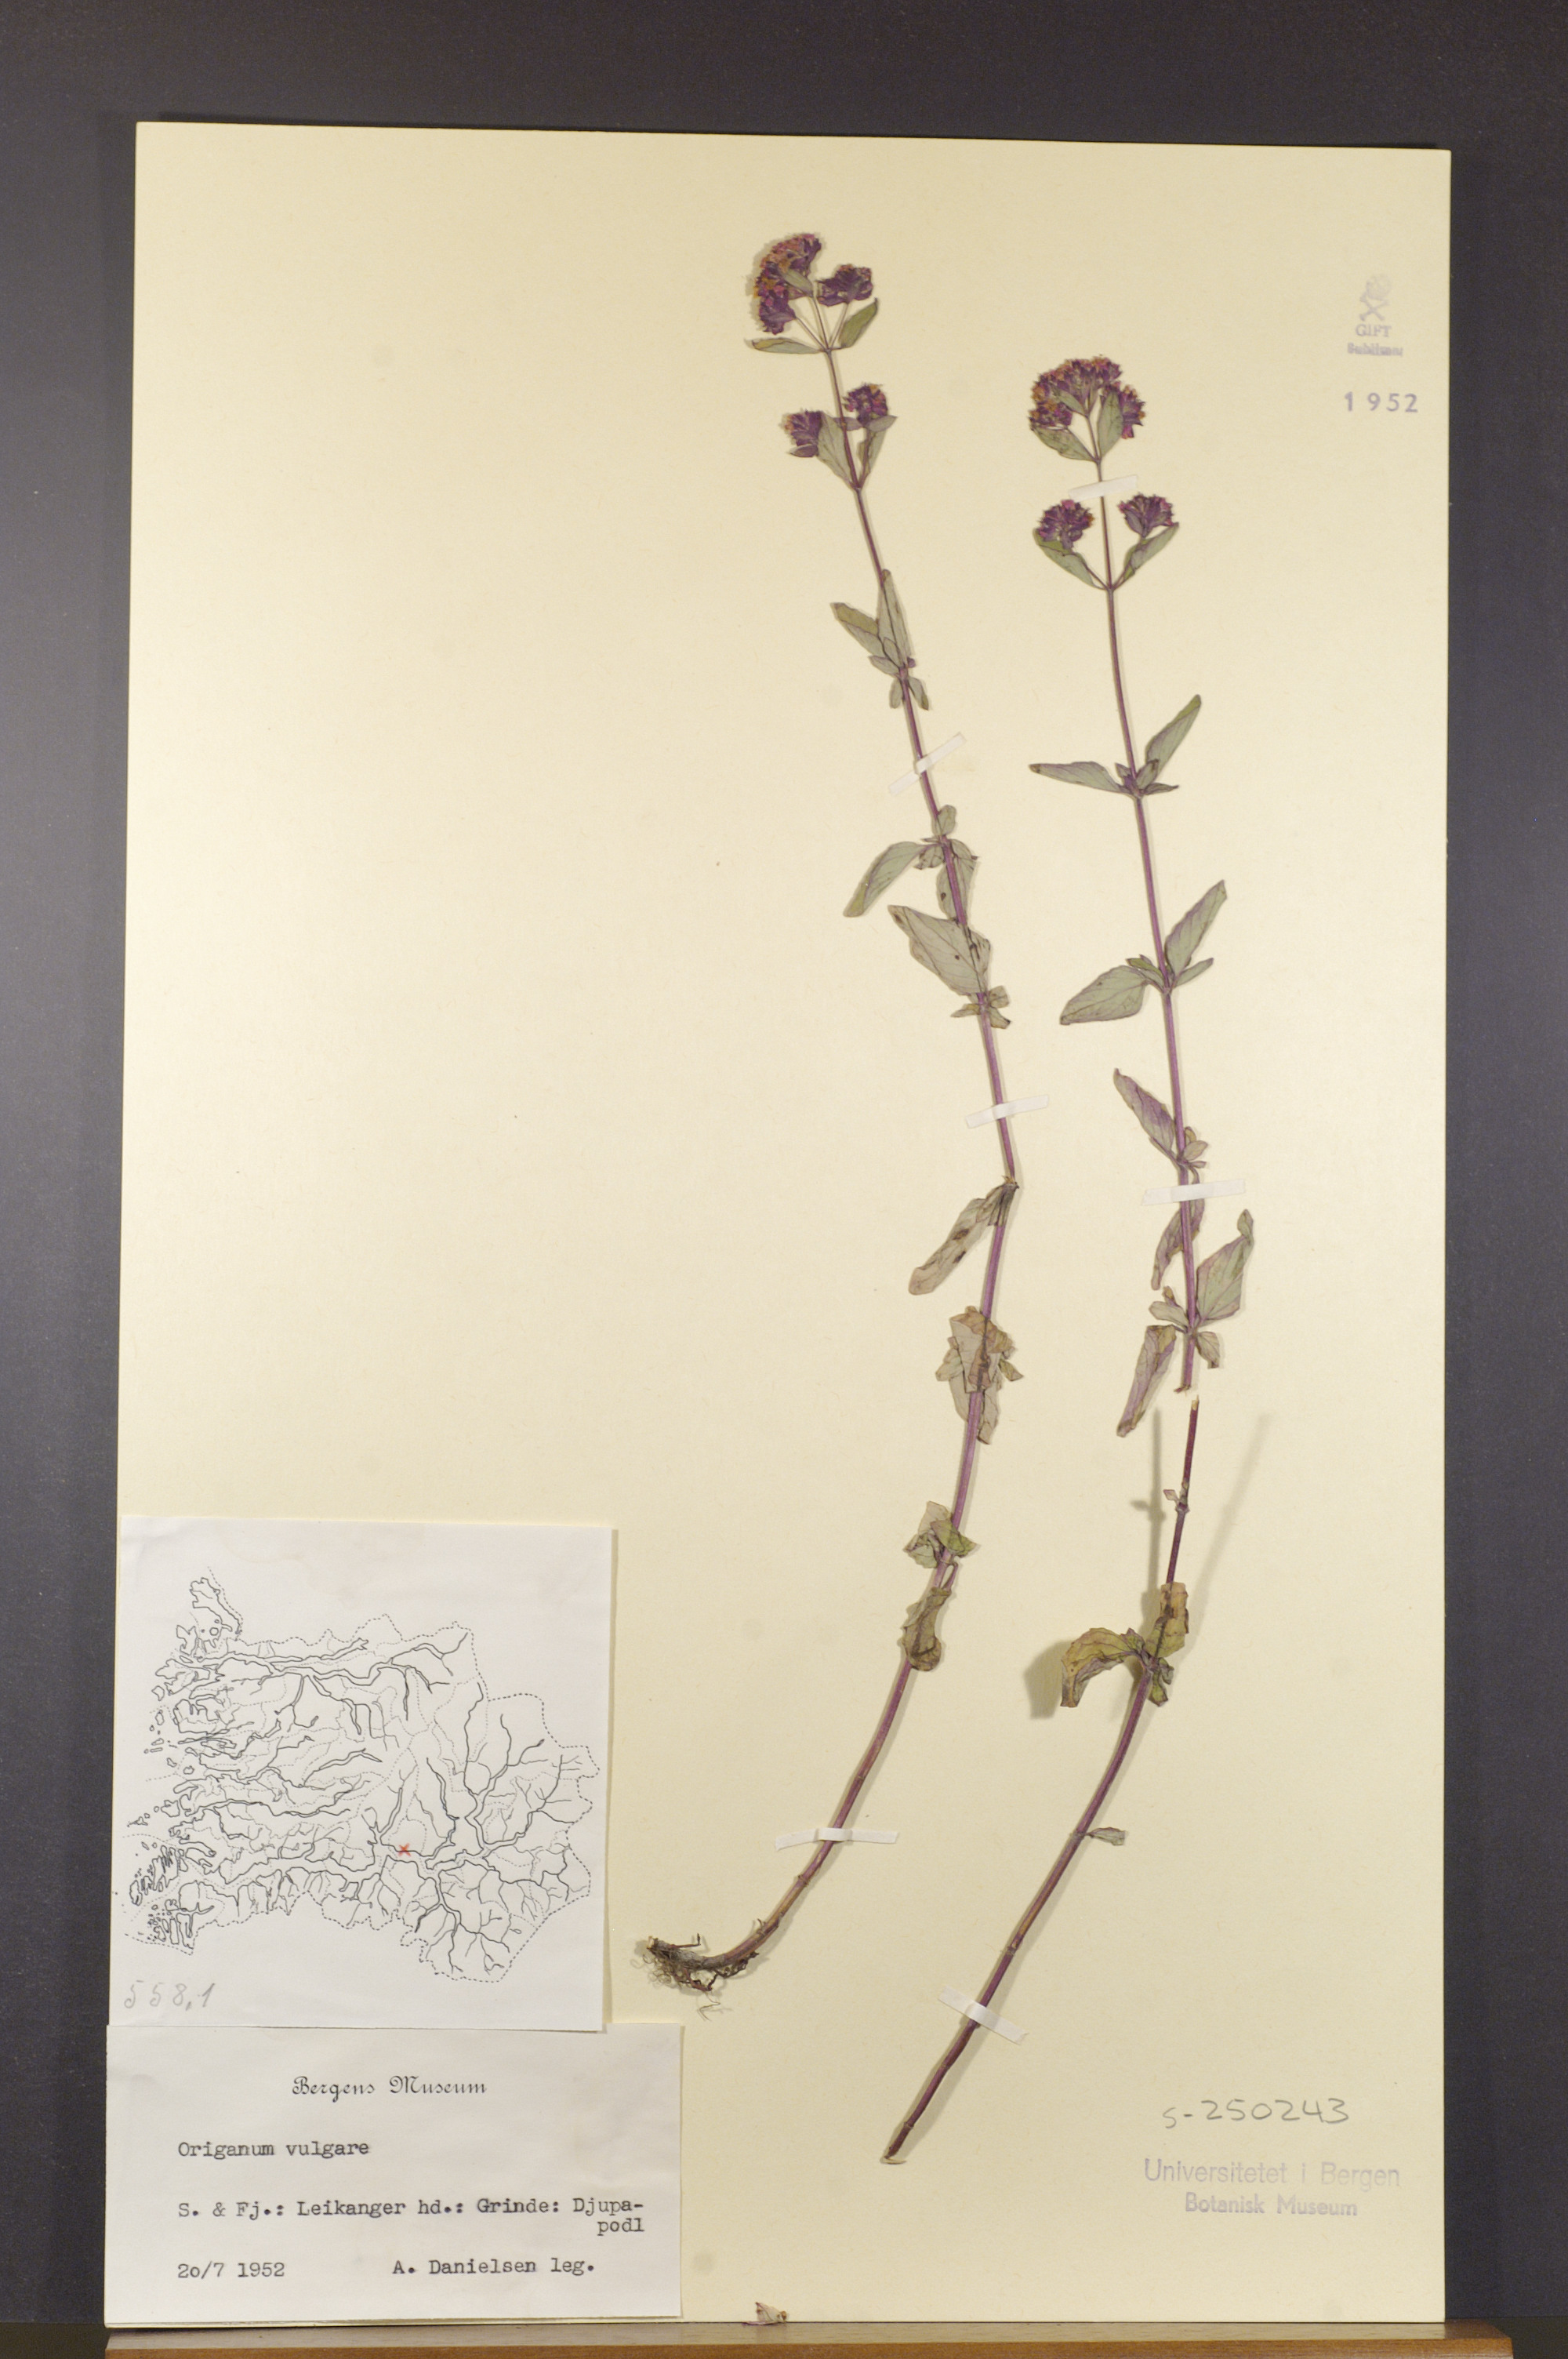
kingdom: Plantae
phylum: Tracheophyta
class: Magnoliopsida
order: Lamiales
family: Lamiaceae
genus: Origanum
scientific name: Origanum vulgare
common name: Wild marjoram
